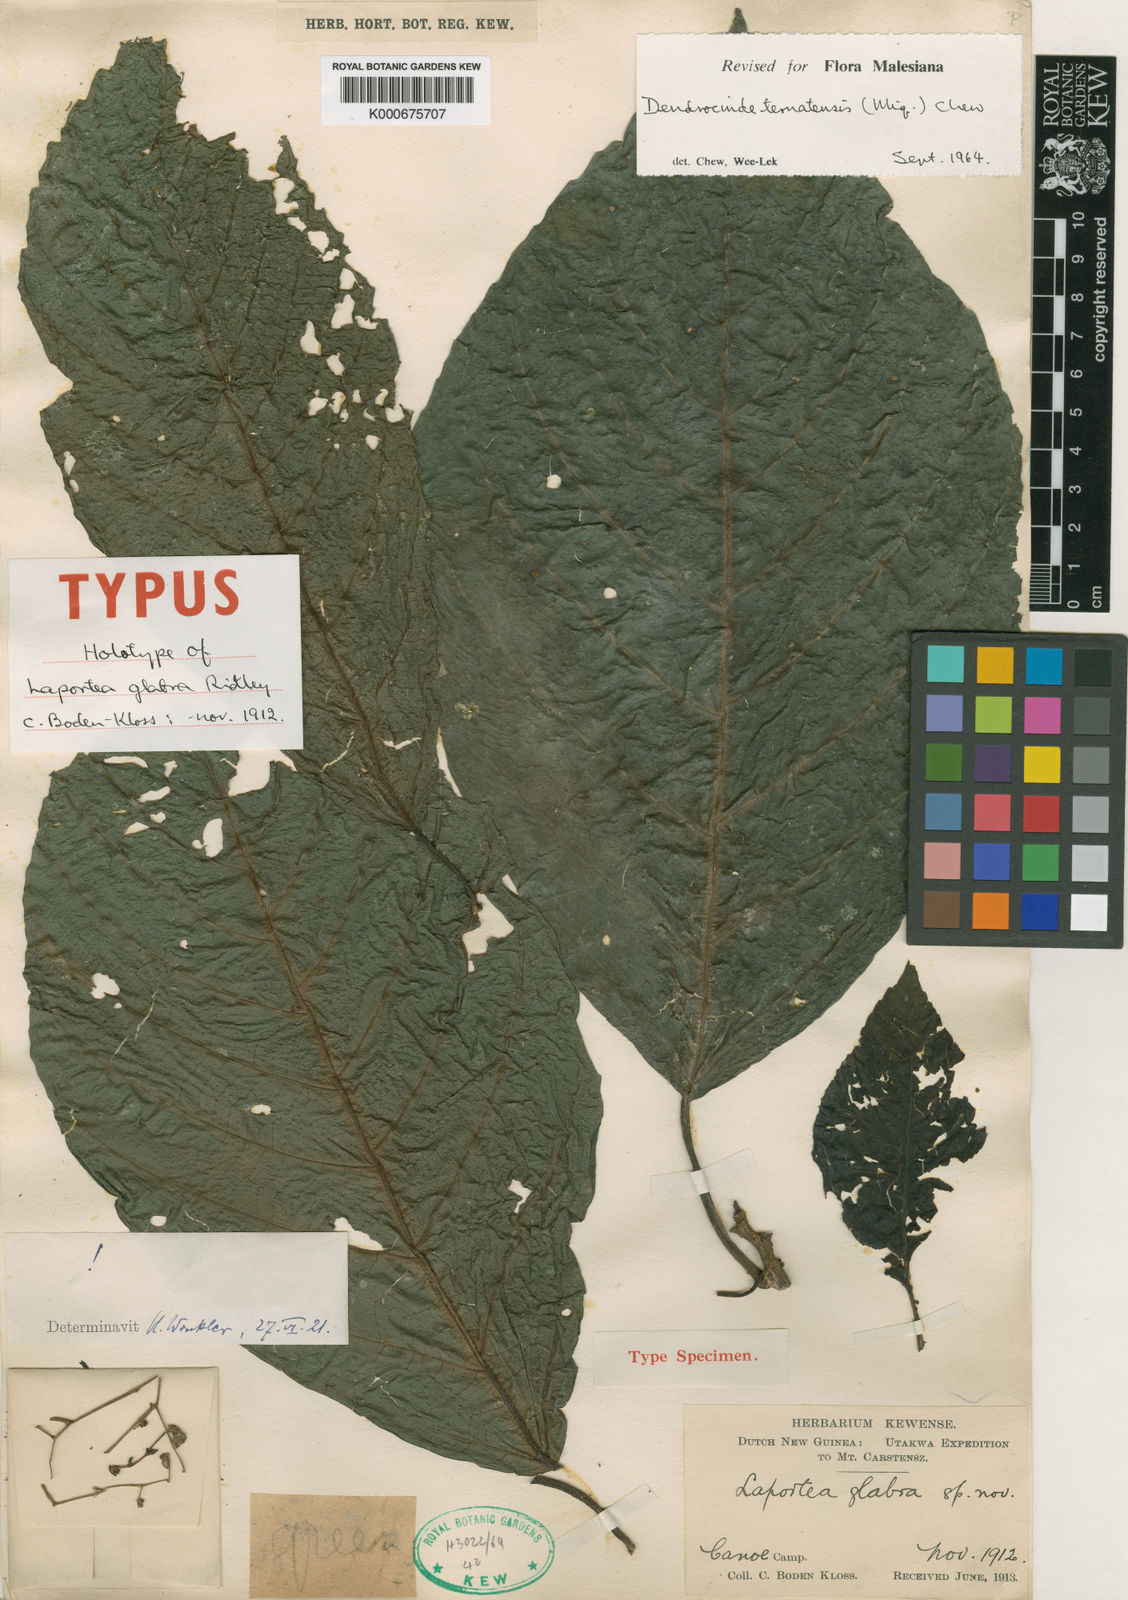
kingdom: Plantae
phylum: Tracheophyta
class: Magnoliopsida
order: Rosales
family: Urticaceae
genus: Dendrocnide
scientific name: Dendrocnide ternatensis
